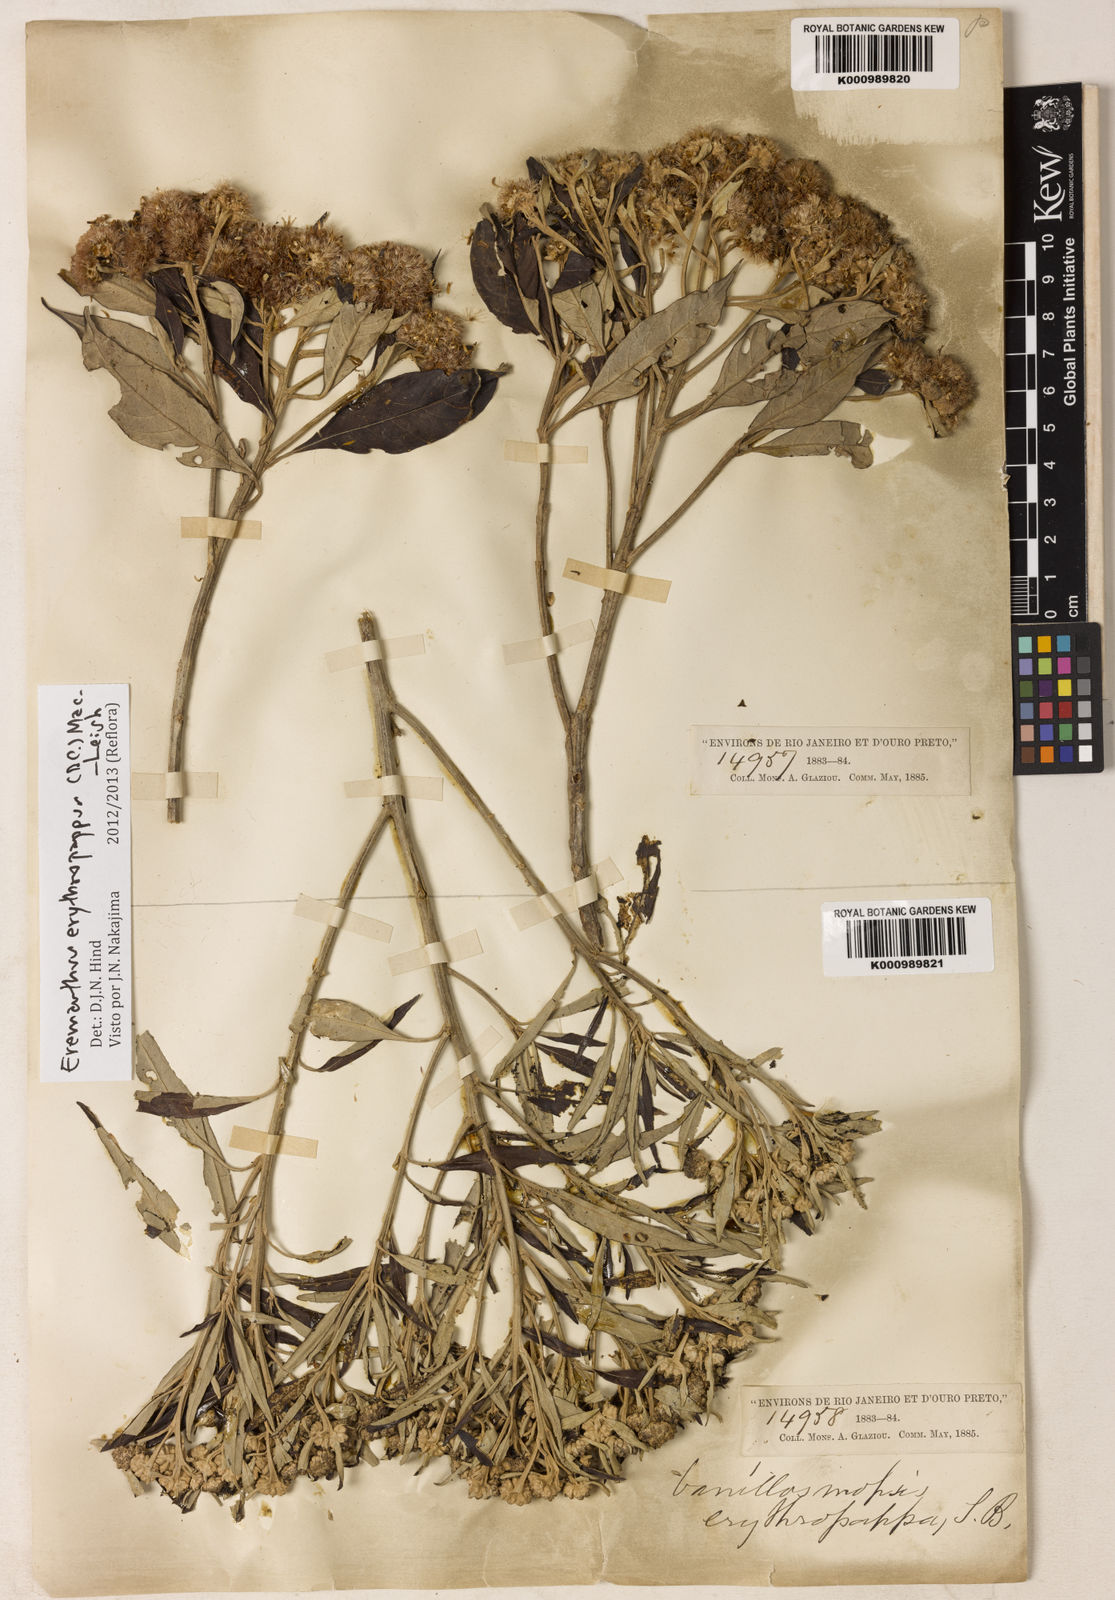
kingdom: Plantae
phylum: Tracheophyta
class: Magnoliopsida
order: Asterales
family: Asteraceae
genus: Eremanthus
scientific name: Eremanthus erythropappus
